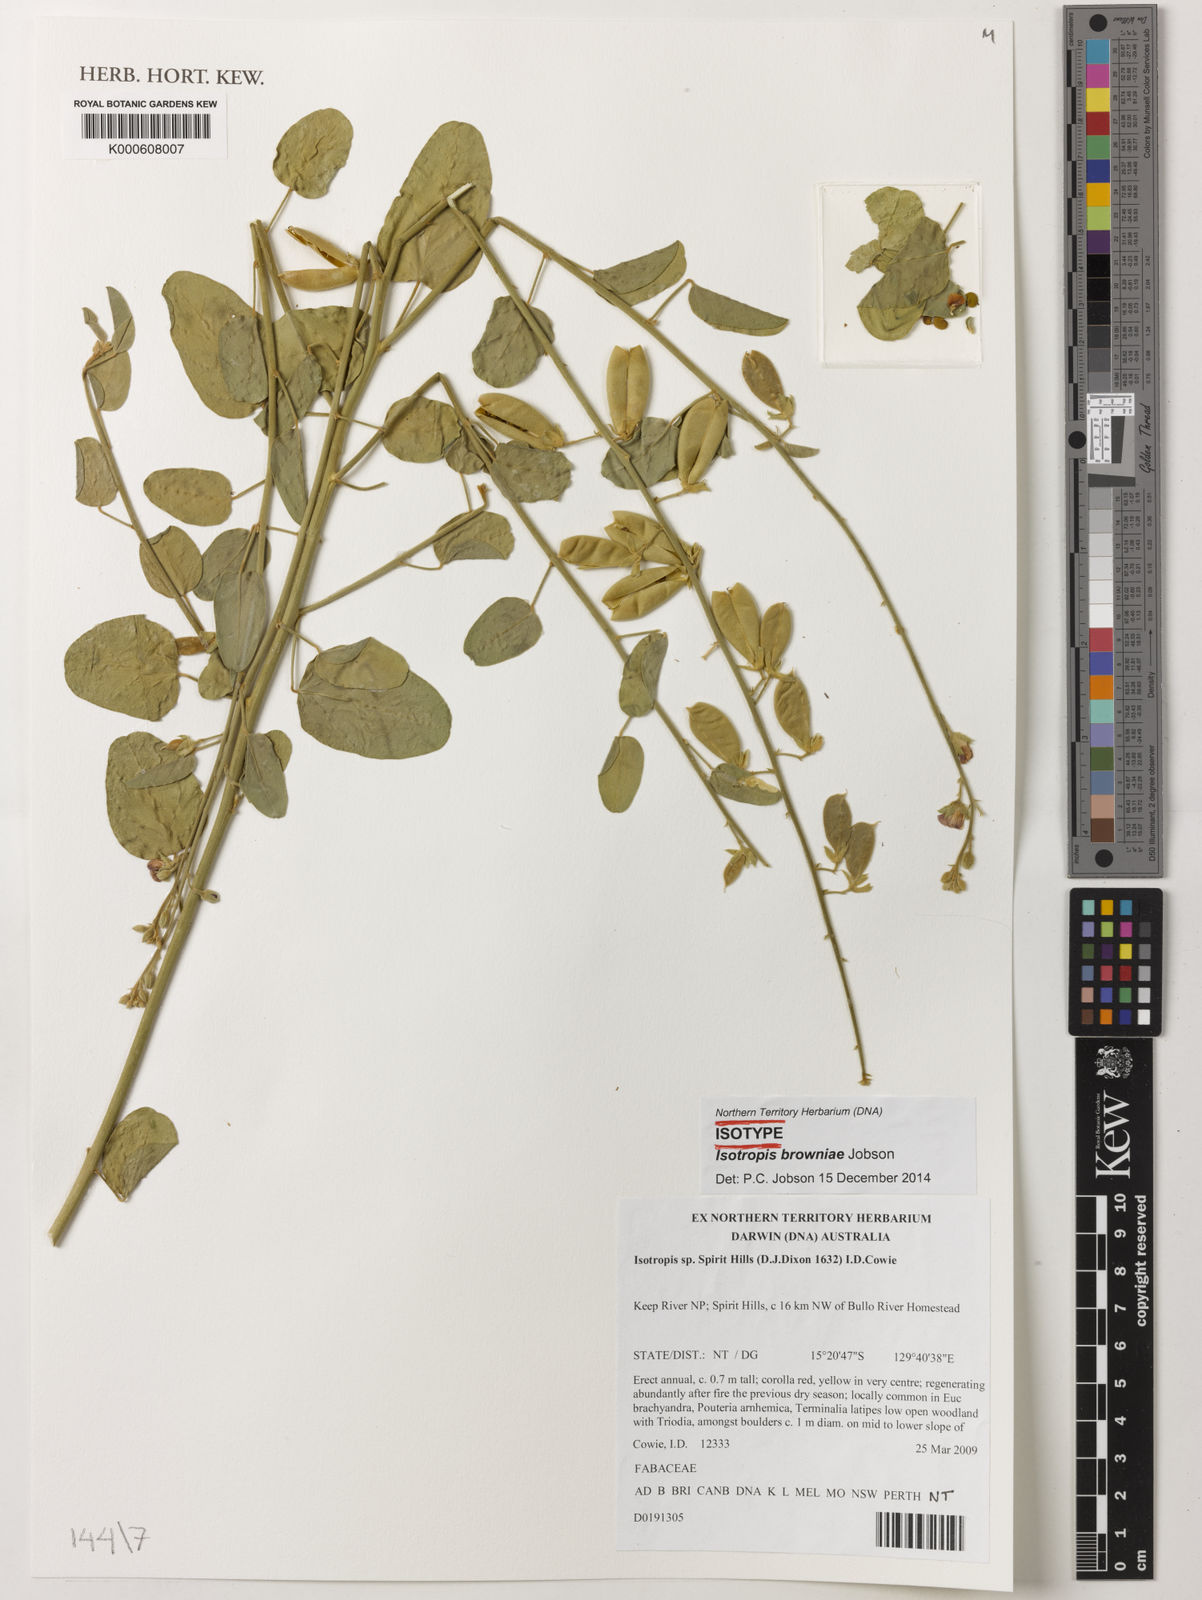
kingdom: Plantae
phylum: Tracheophyta
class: Magnoliopsida
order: Fabales
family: Fabaceae
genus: Isotropis
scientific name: Isotropis browniae
